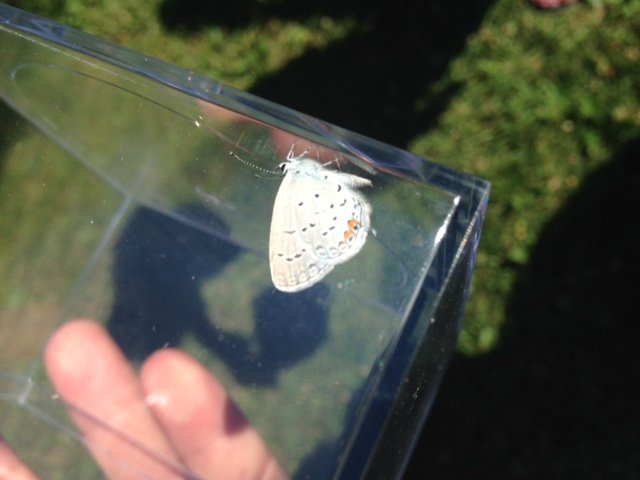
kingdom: Animalia
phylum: Arthropoda
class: Insecta
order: Lepidoptera
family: Pieridae
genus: Pieris
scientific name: Pieris rapae
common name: Cabbage White
